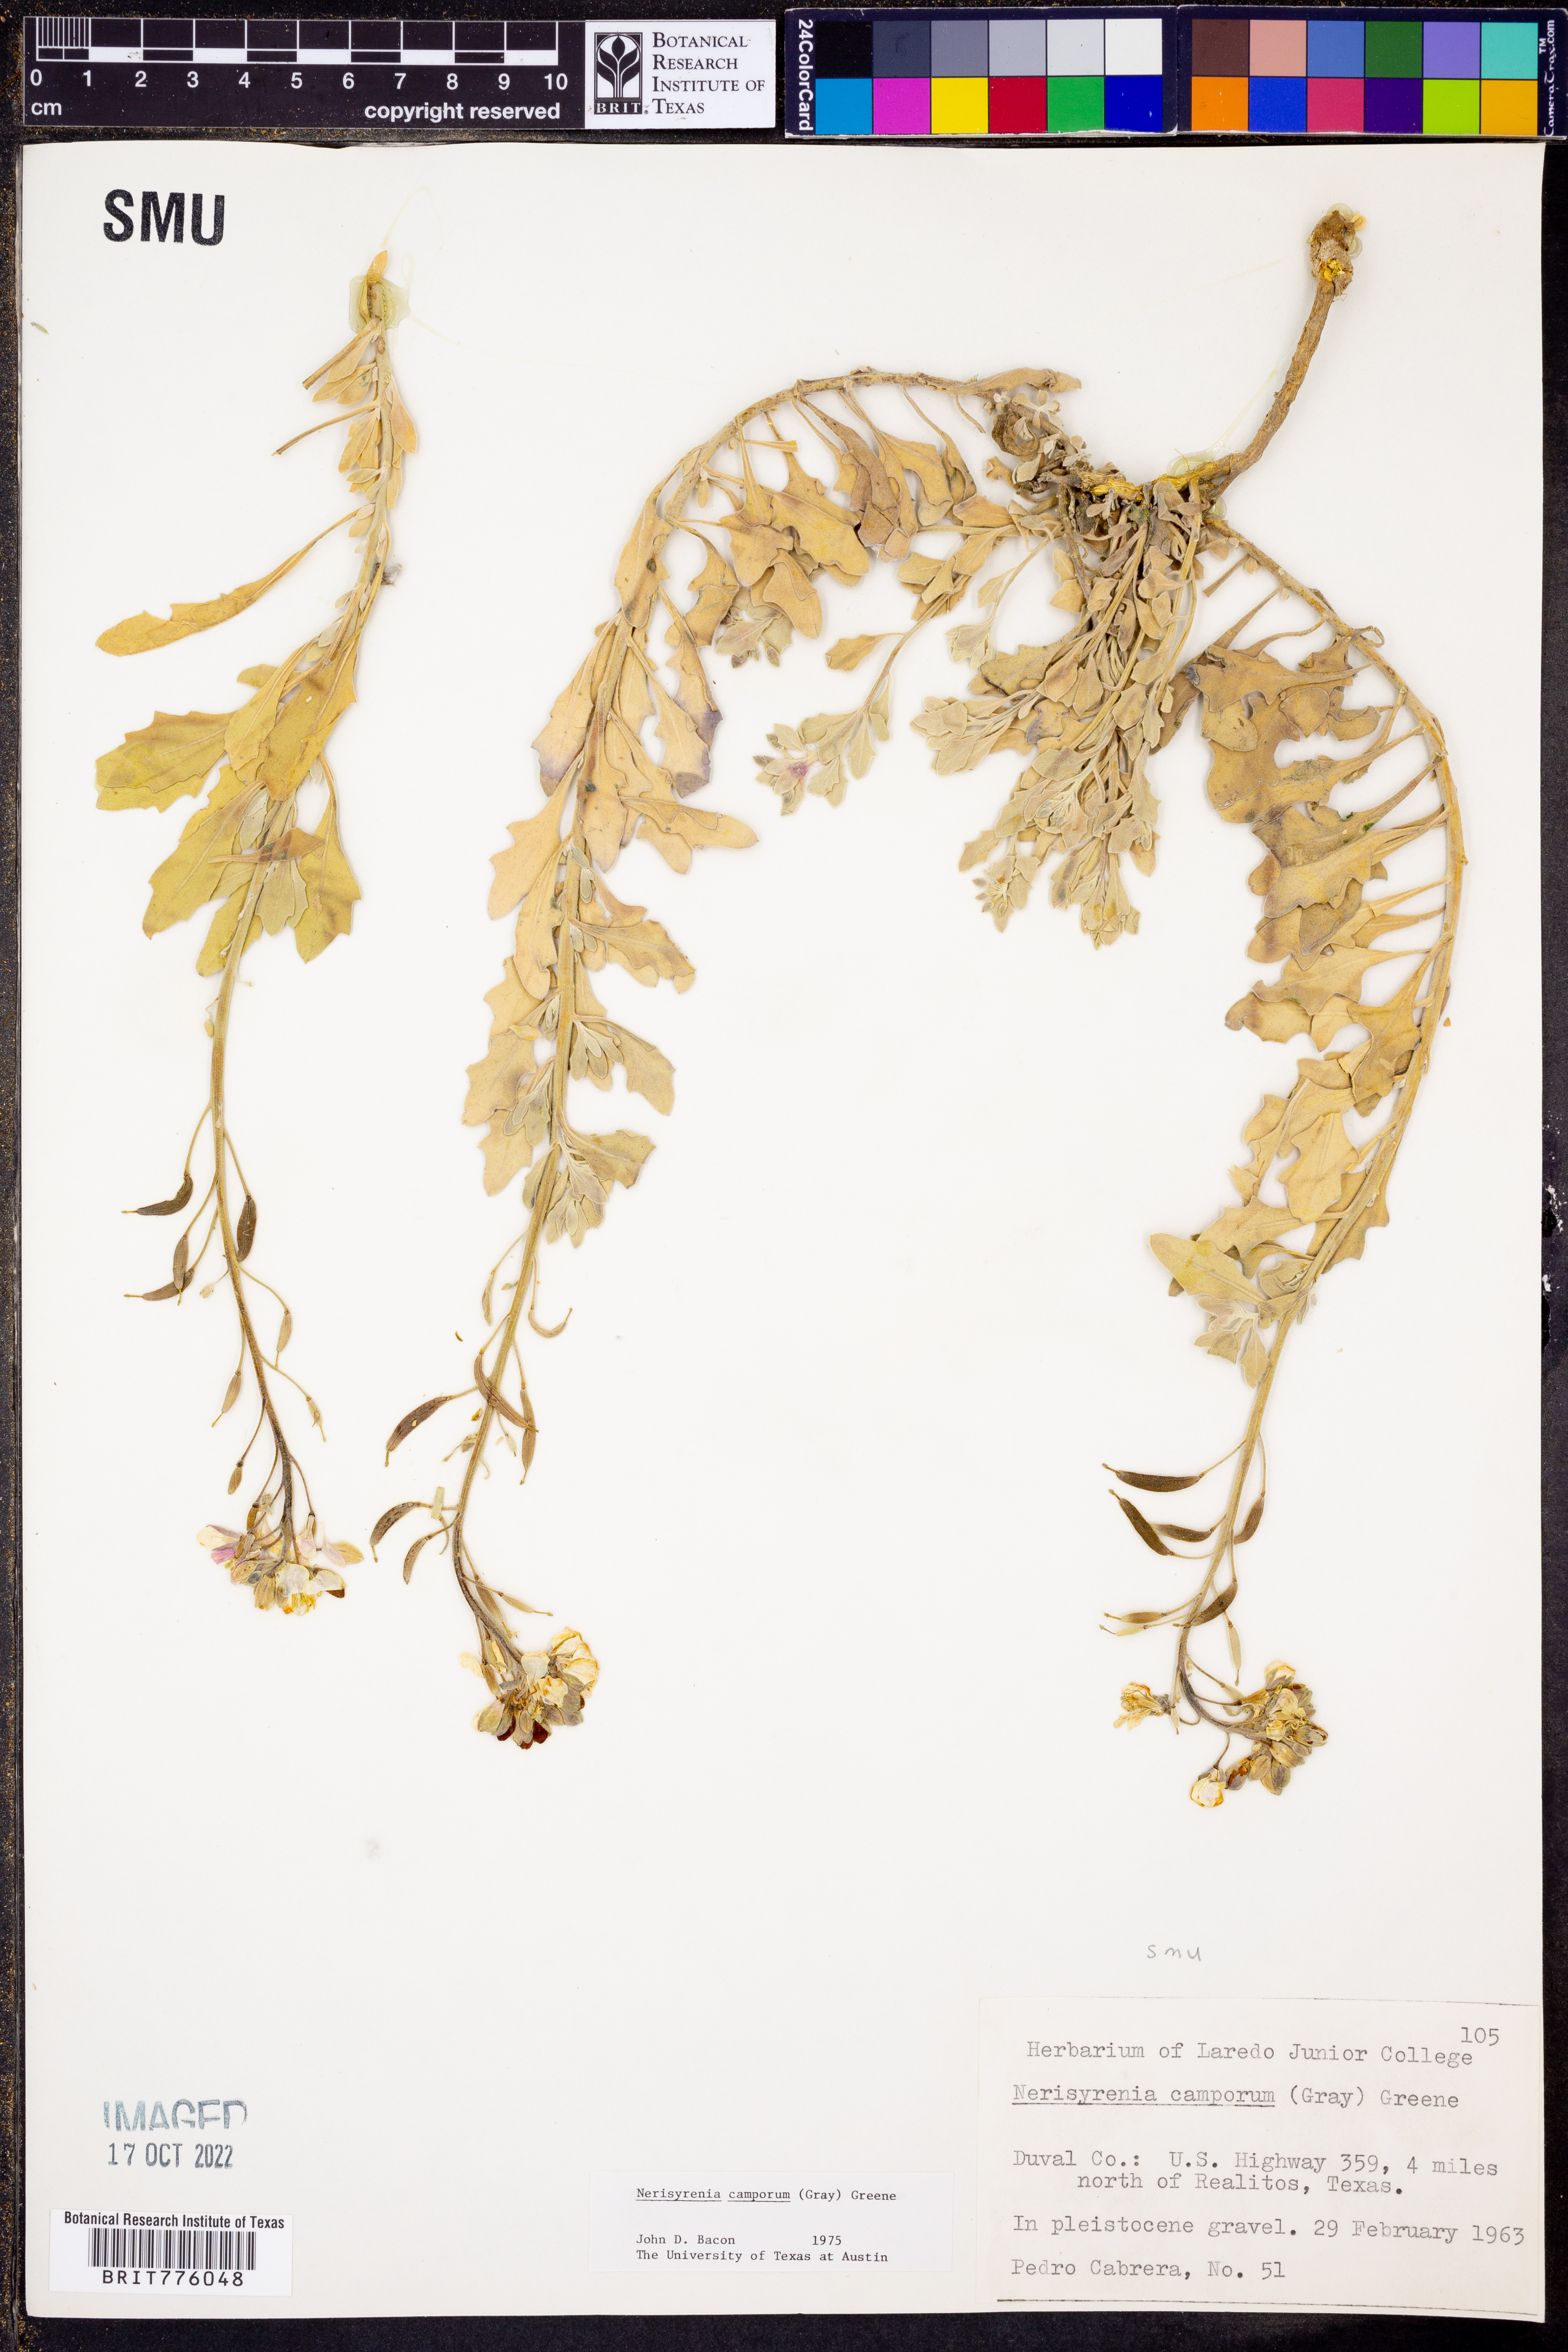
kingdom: Plantae
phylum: Tracheophyta
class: Magnoliopsida
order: Brassicales
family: Brassicaceae
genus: Nerisyrenia
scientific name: Nerisyrenia camporum
